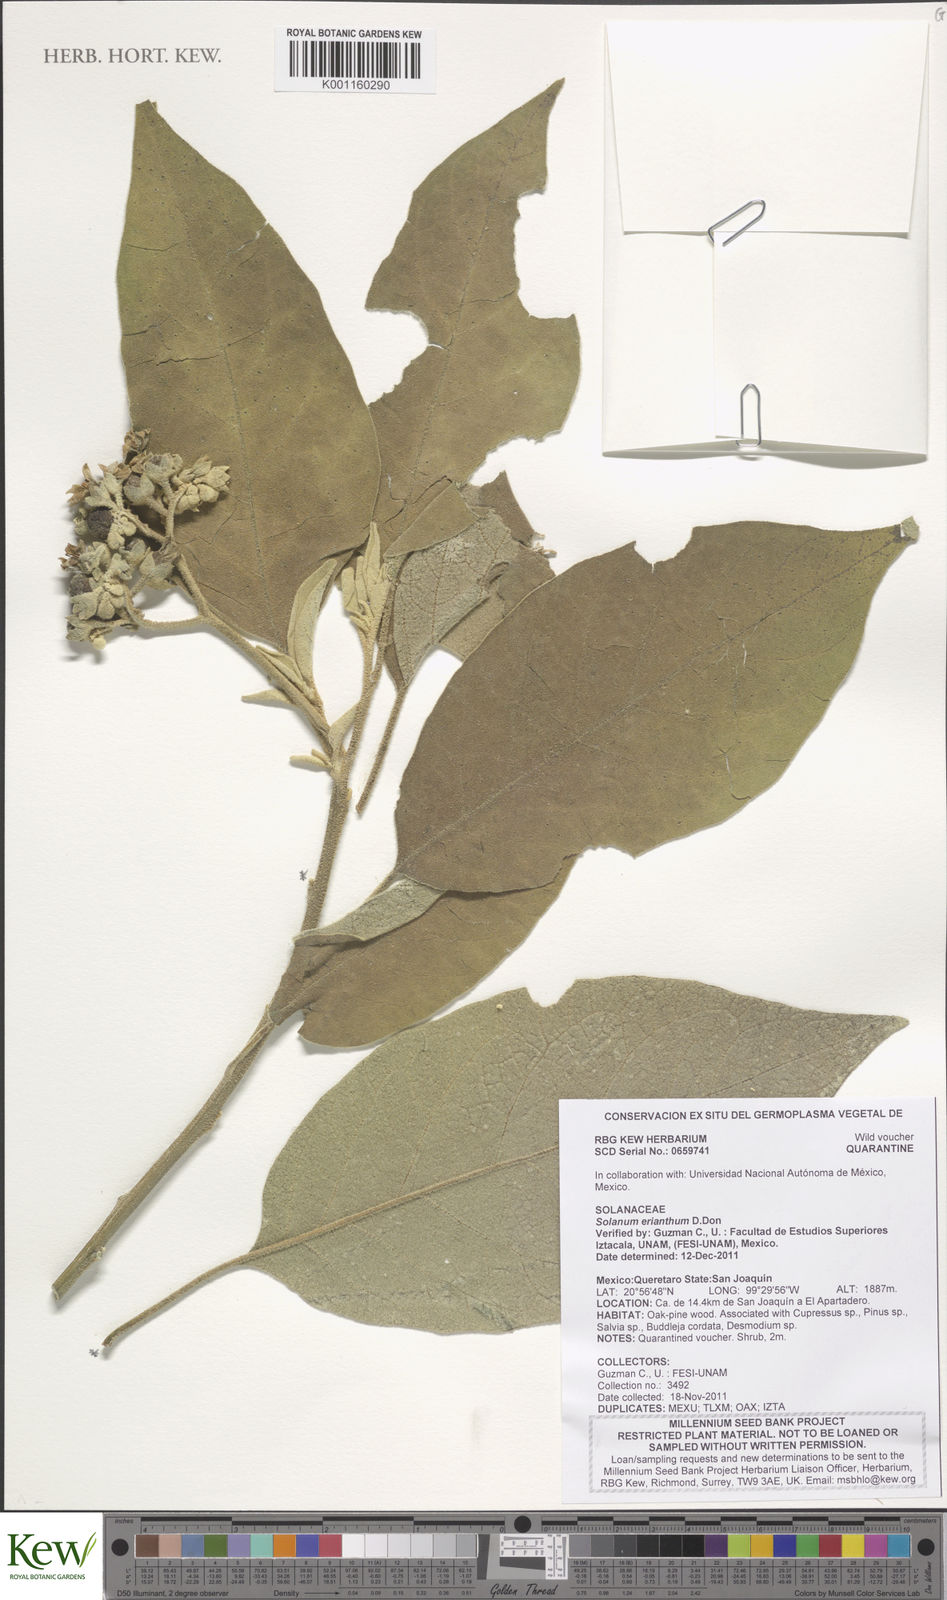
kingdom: Plantae
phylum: Tracheophyta
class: Magnoliopsida
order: Solanales
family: Solanaceae
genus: Solanum
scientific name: Solanum erianthum
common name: Tobacco-tree
